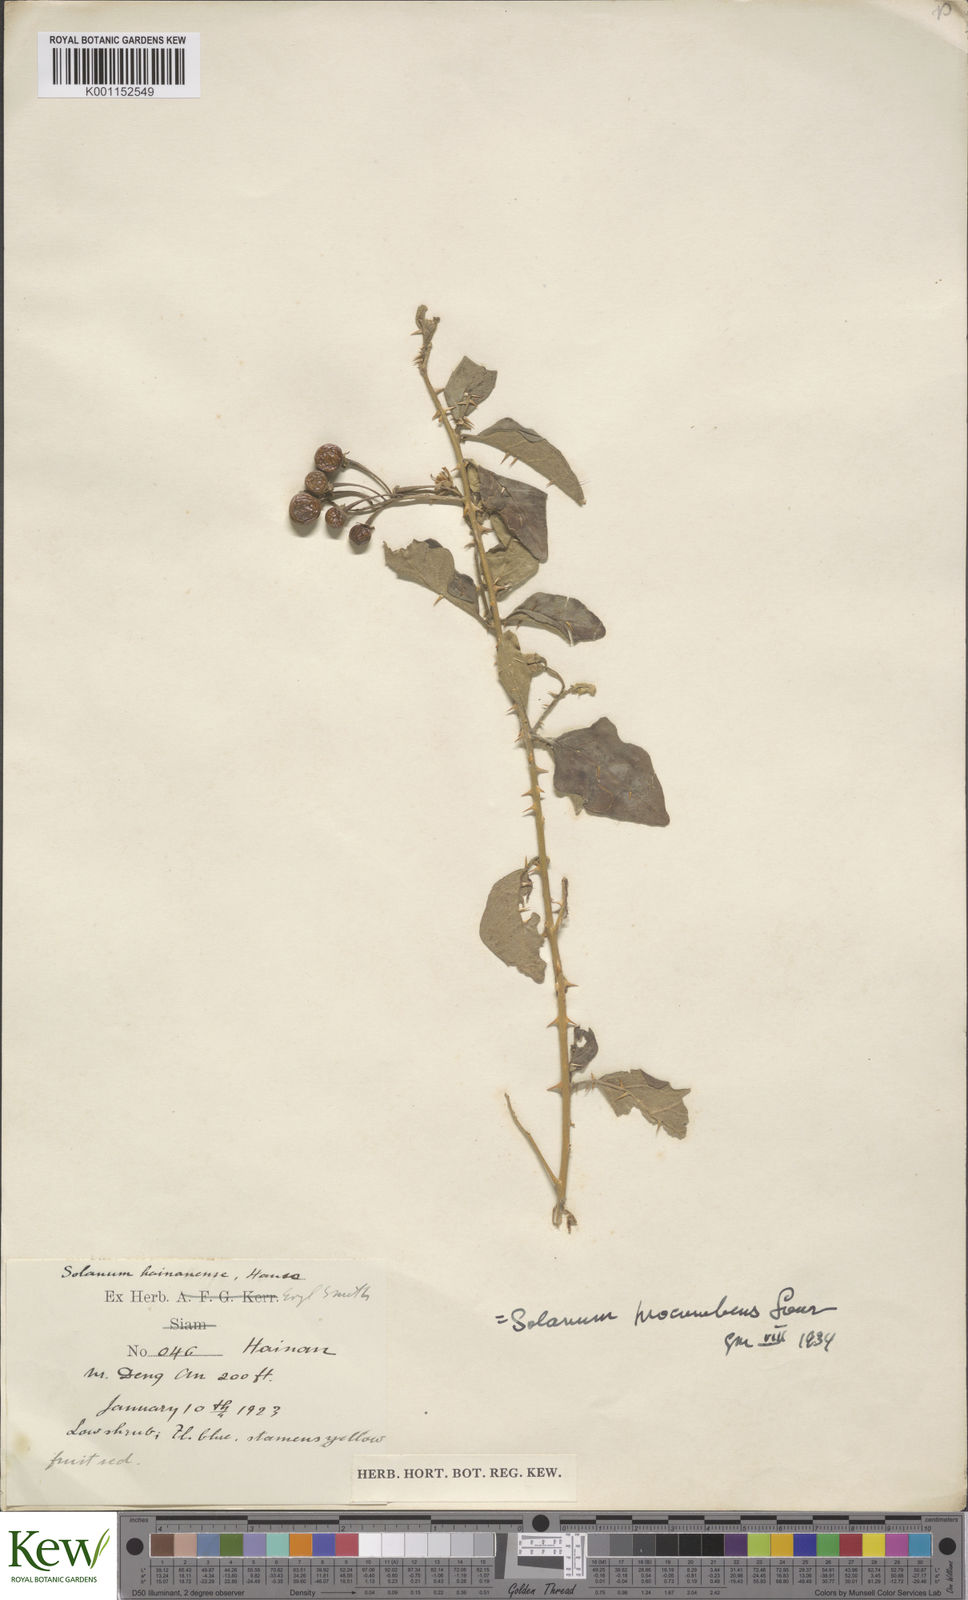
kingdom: Plantae
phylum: Tracheophyta
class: Magnoliopsida
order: Solanales
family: Solanaceae
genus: Solanum
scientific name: Solanum procumbens
